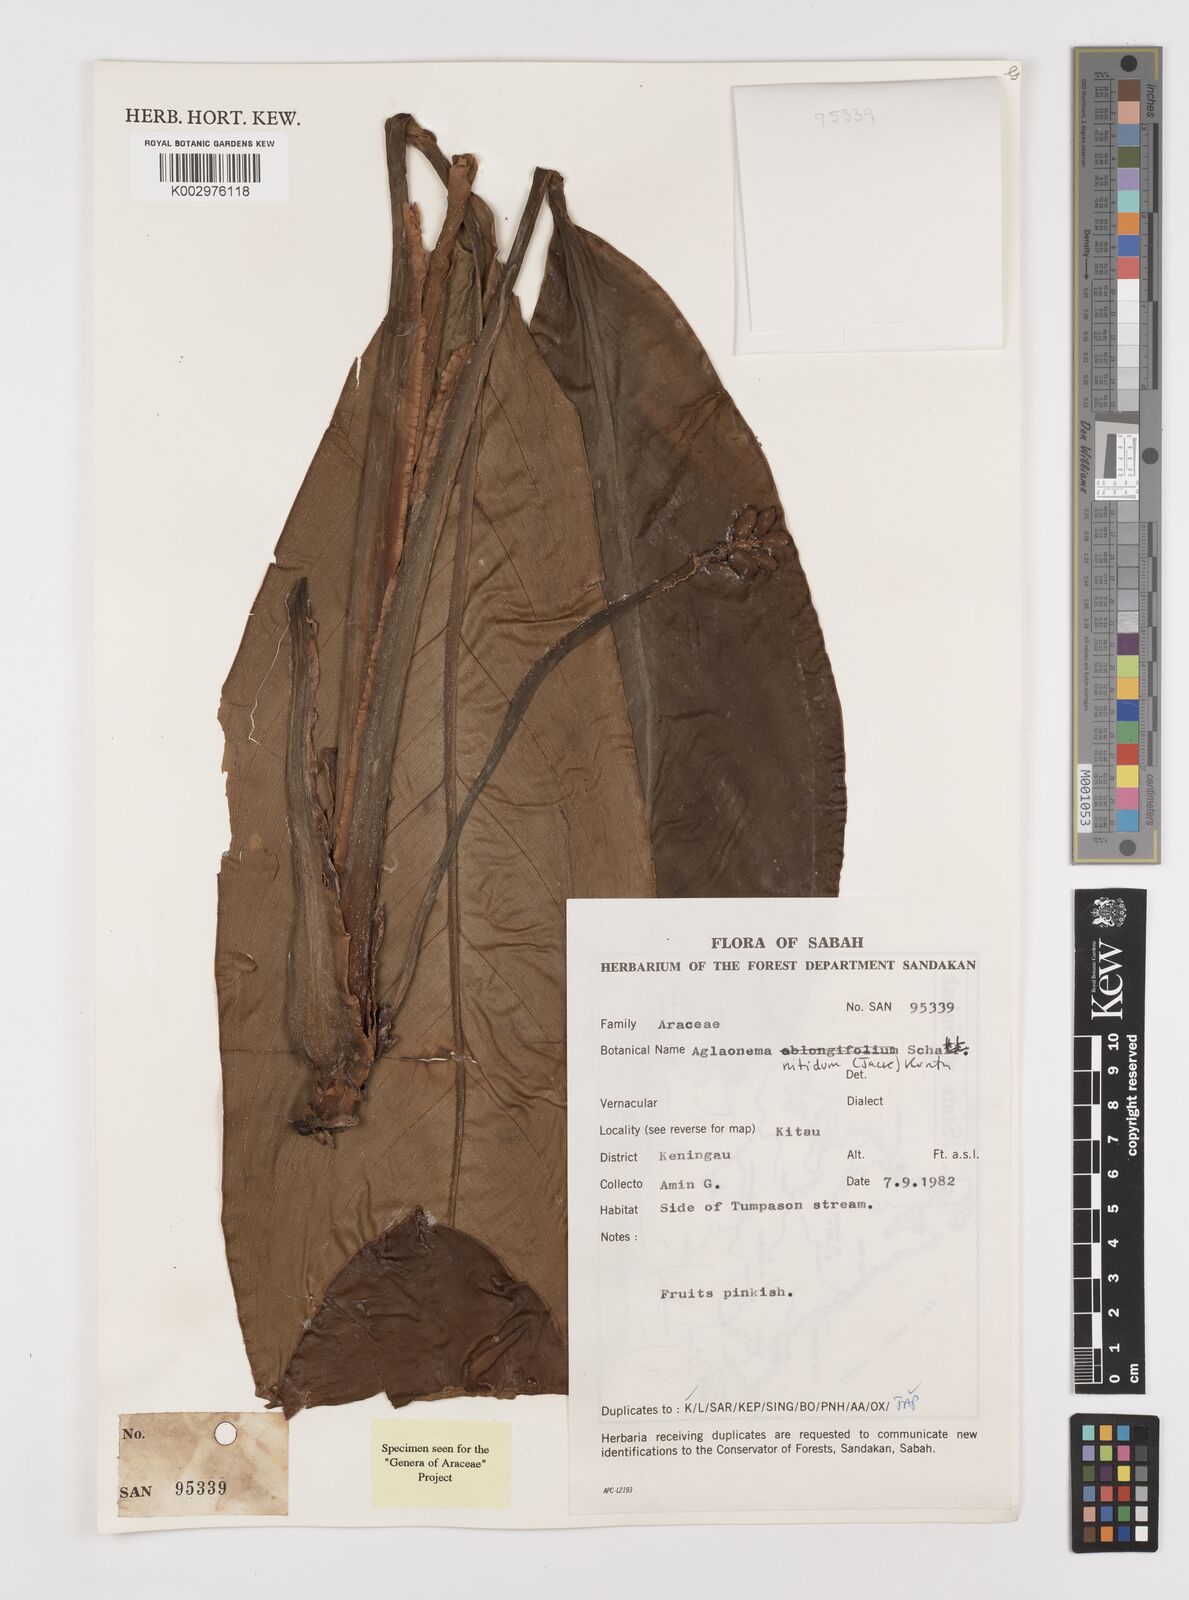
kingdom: Plantae
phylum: Tracheophyta
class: Liliopsida
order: Alismatales
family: Araceae
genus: Aglaonema
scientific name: Aglaonema nitidum
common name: Aglaonema aroid
